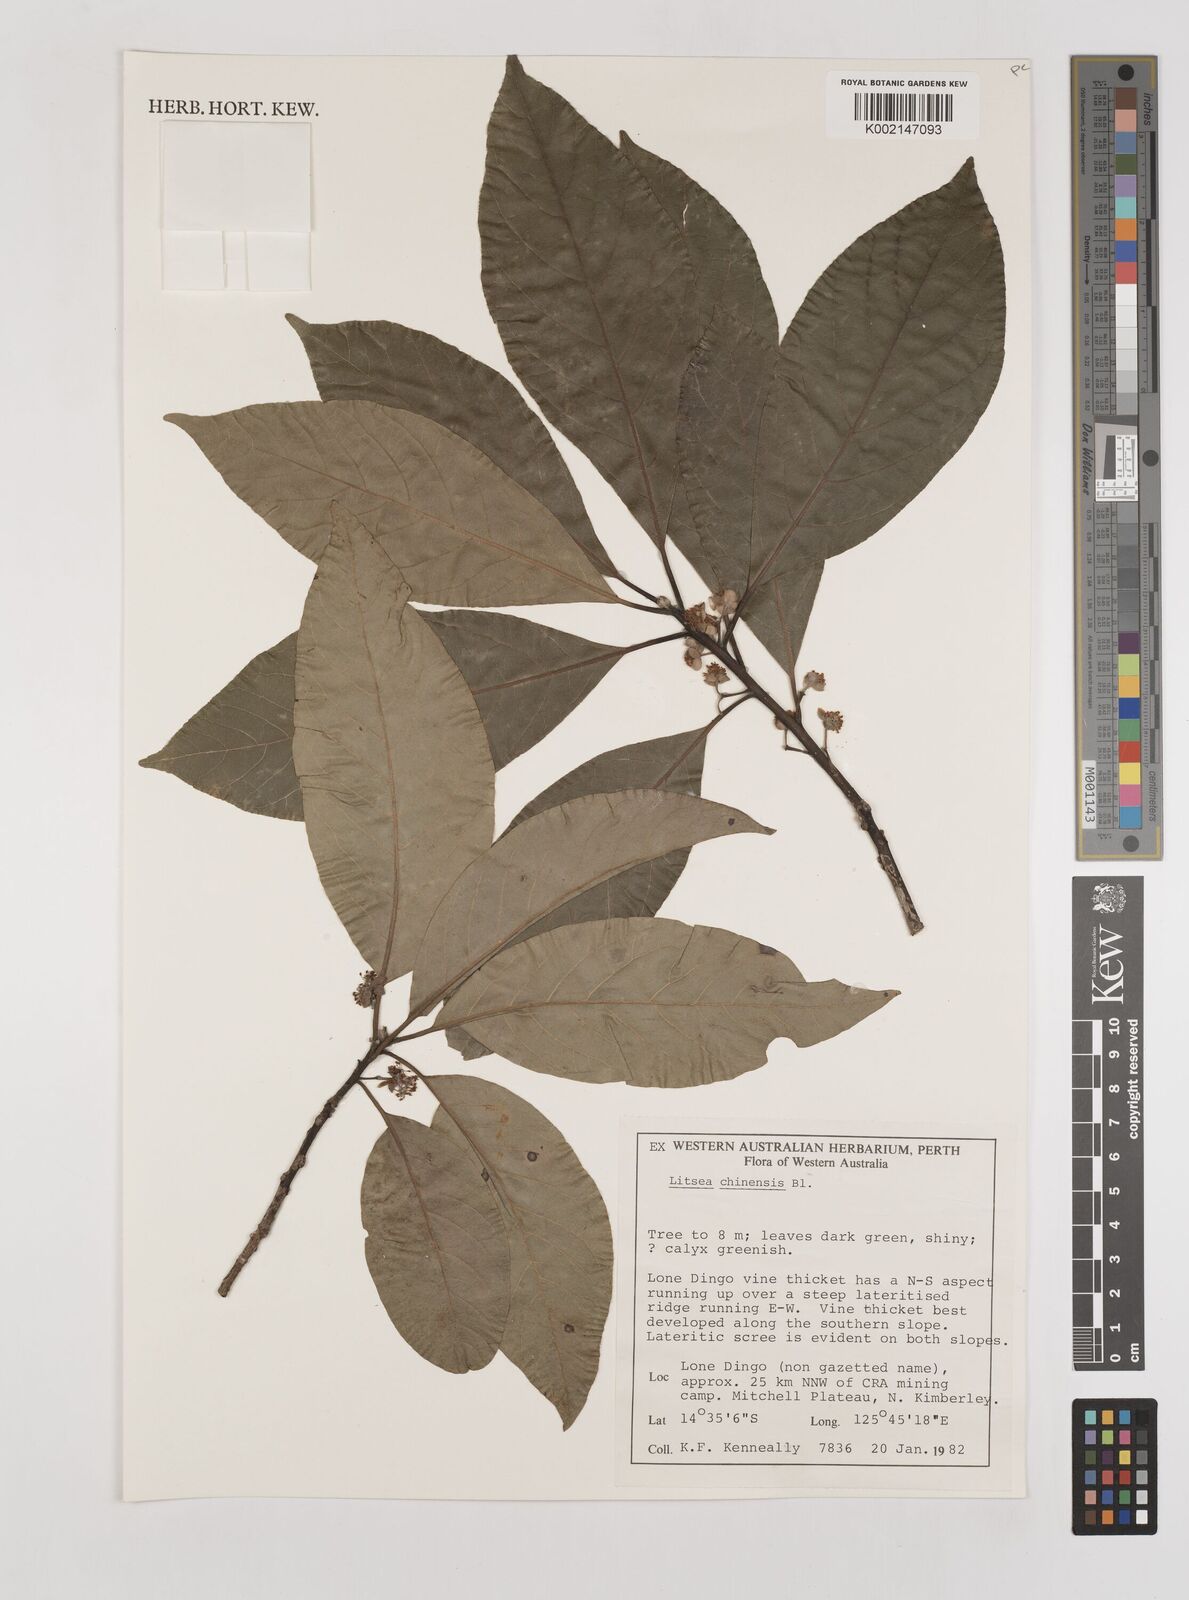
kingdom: Plantae
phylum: Tracheophyta
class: Magnoliopsida
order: Laurales
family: Lauraceae
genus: Litsea
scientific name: Litsea glutinosa
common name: Indian-laurel
